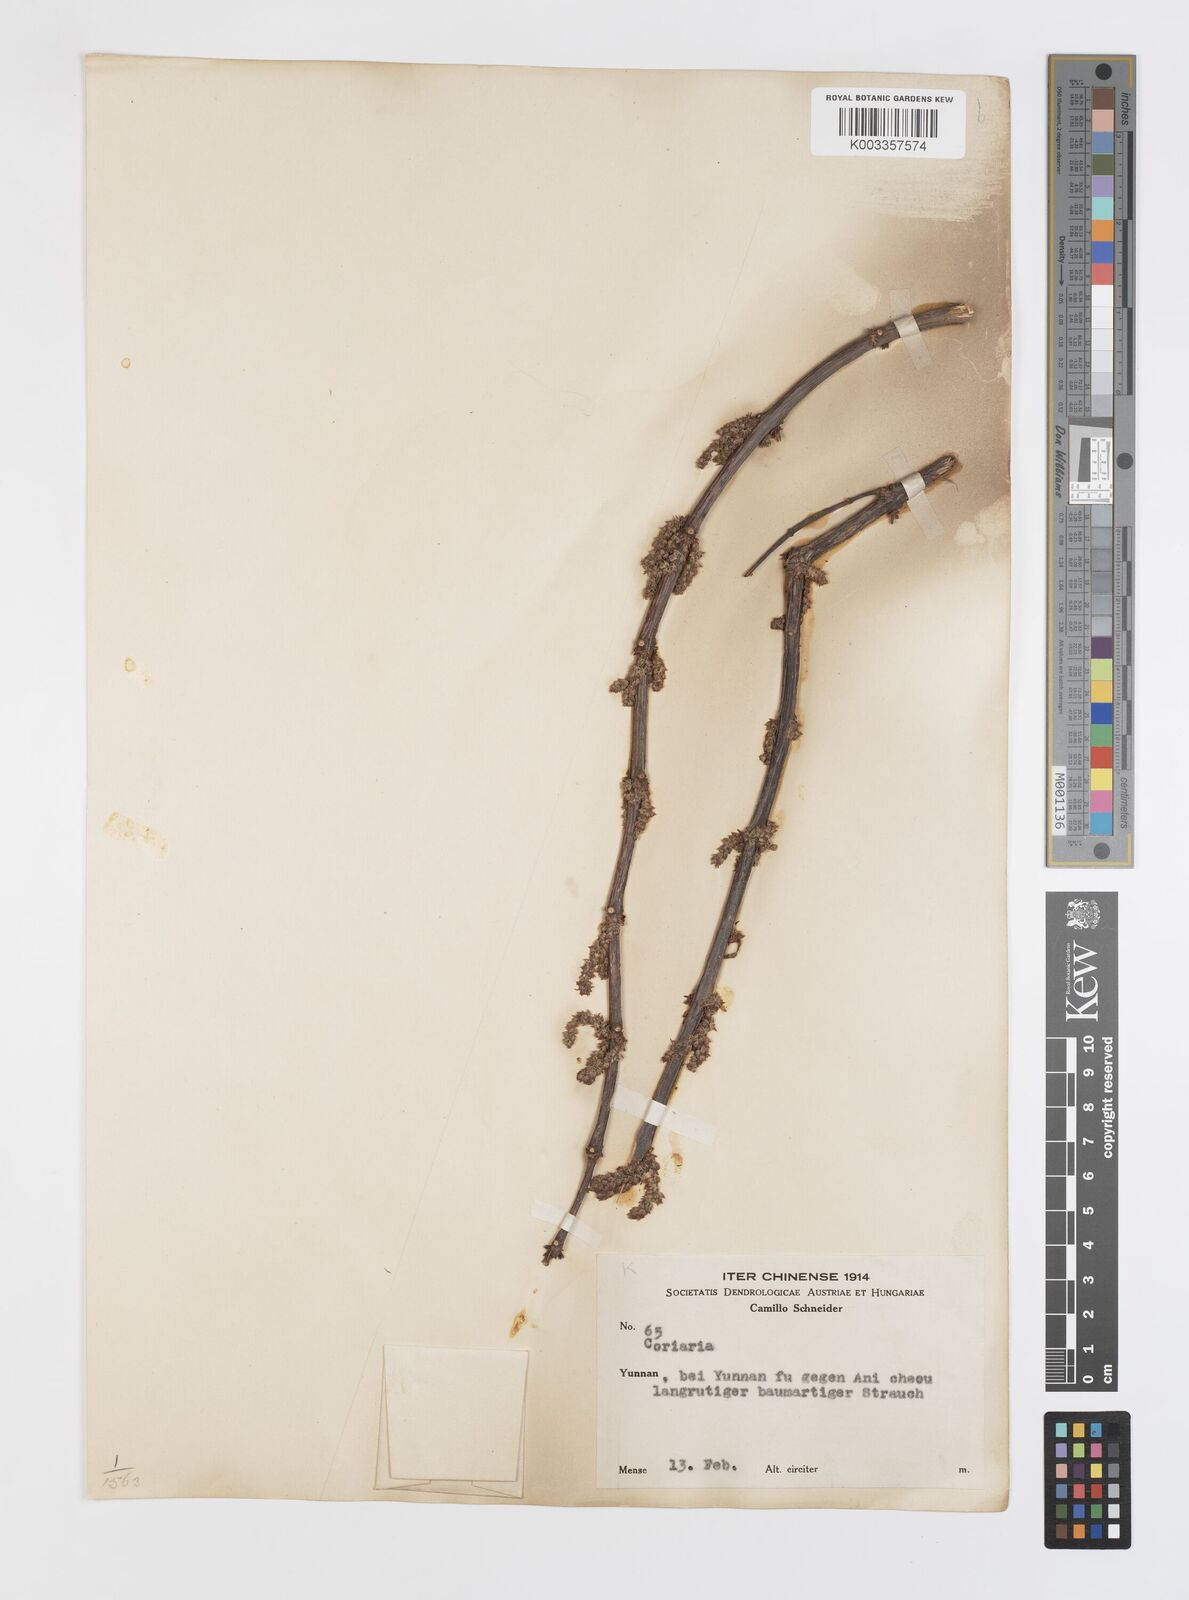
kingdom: Plantae
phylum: Tracheophyta
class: Magnoliopsida
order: Cucurbitales
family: Coriariaceae
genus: Coriaria
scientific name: Coriaria
